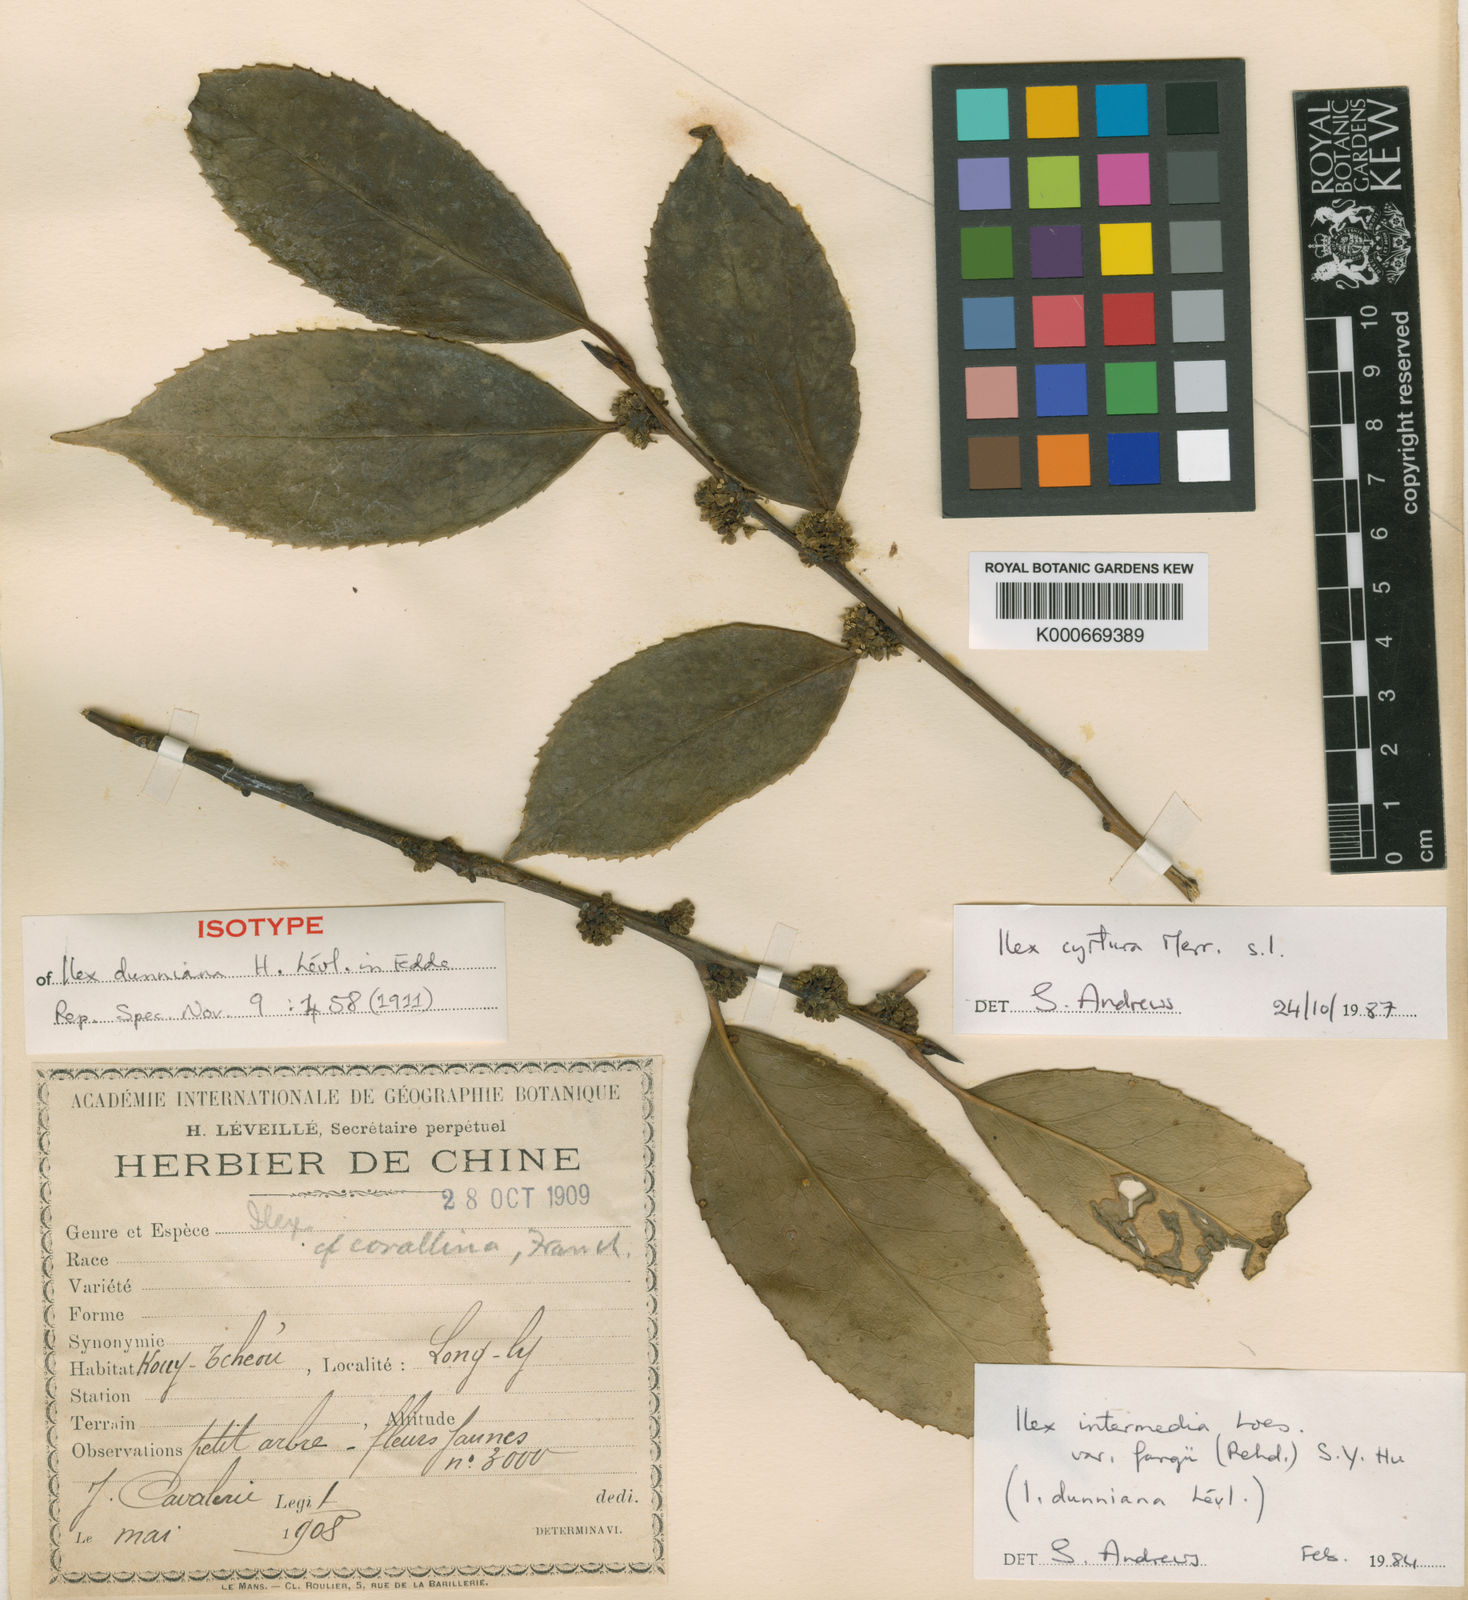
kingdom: Plantae
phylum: Tracheophyta
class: Magnoliopsida
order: Aquifoliales
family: Aquifoliaceae
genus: Ilex
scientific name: Ilex cyrtura
